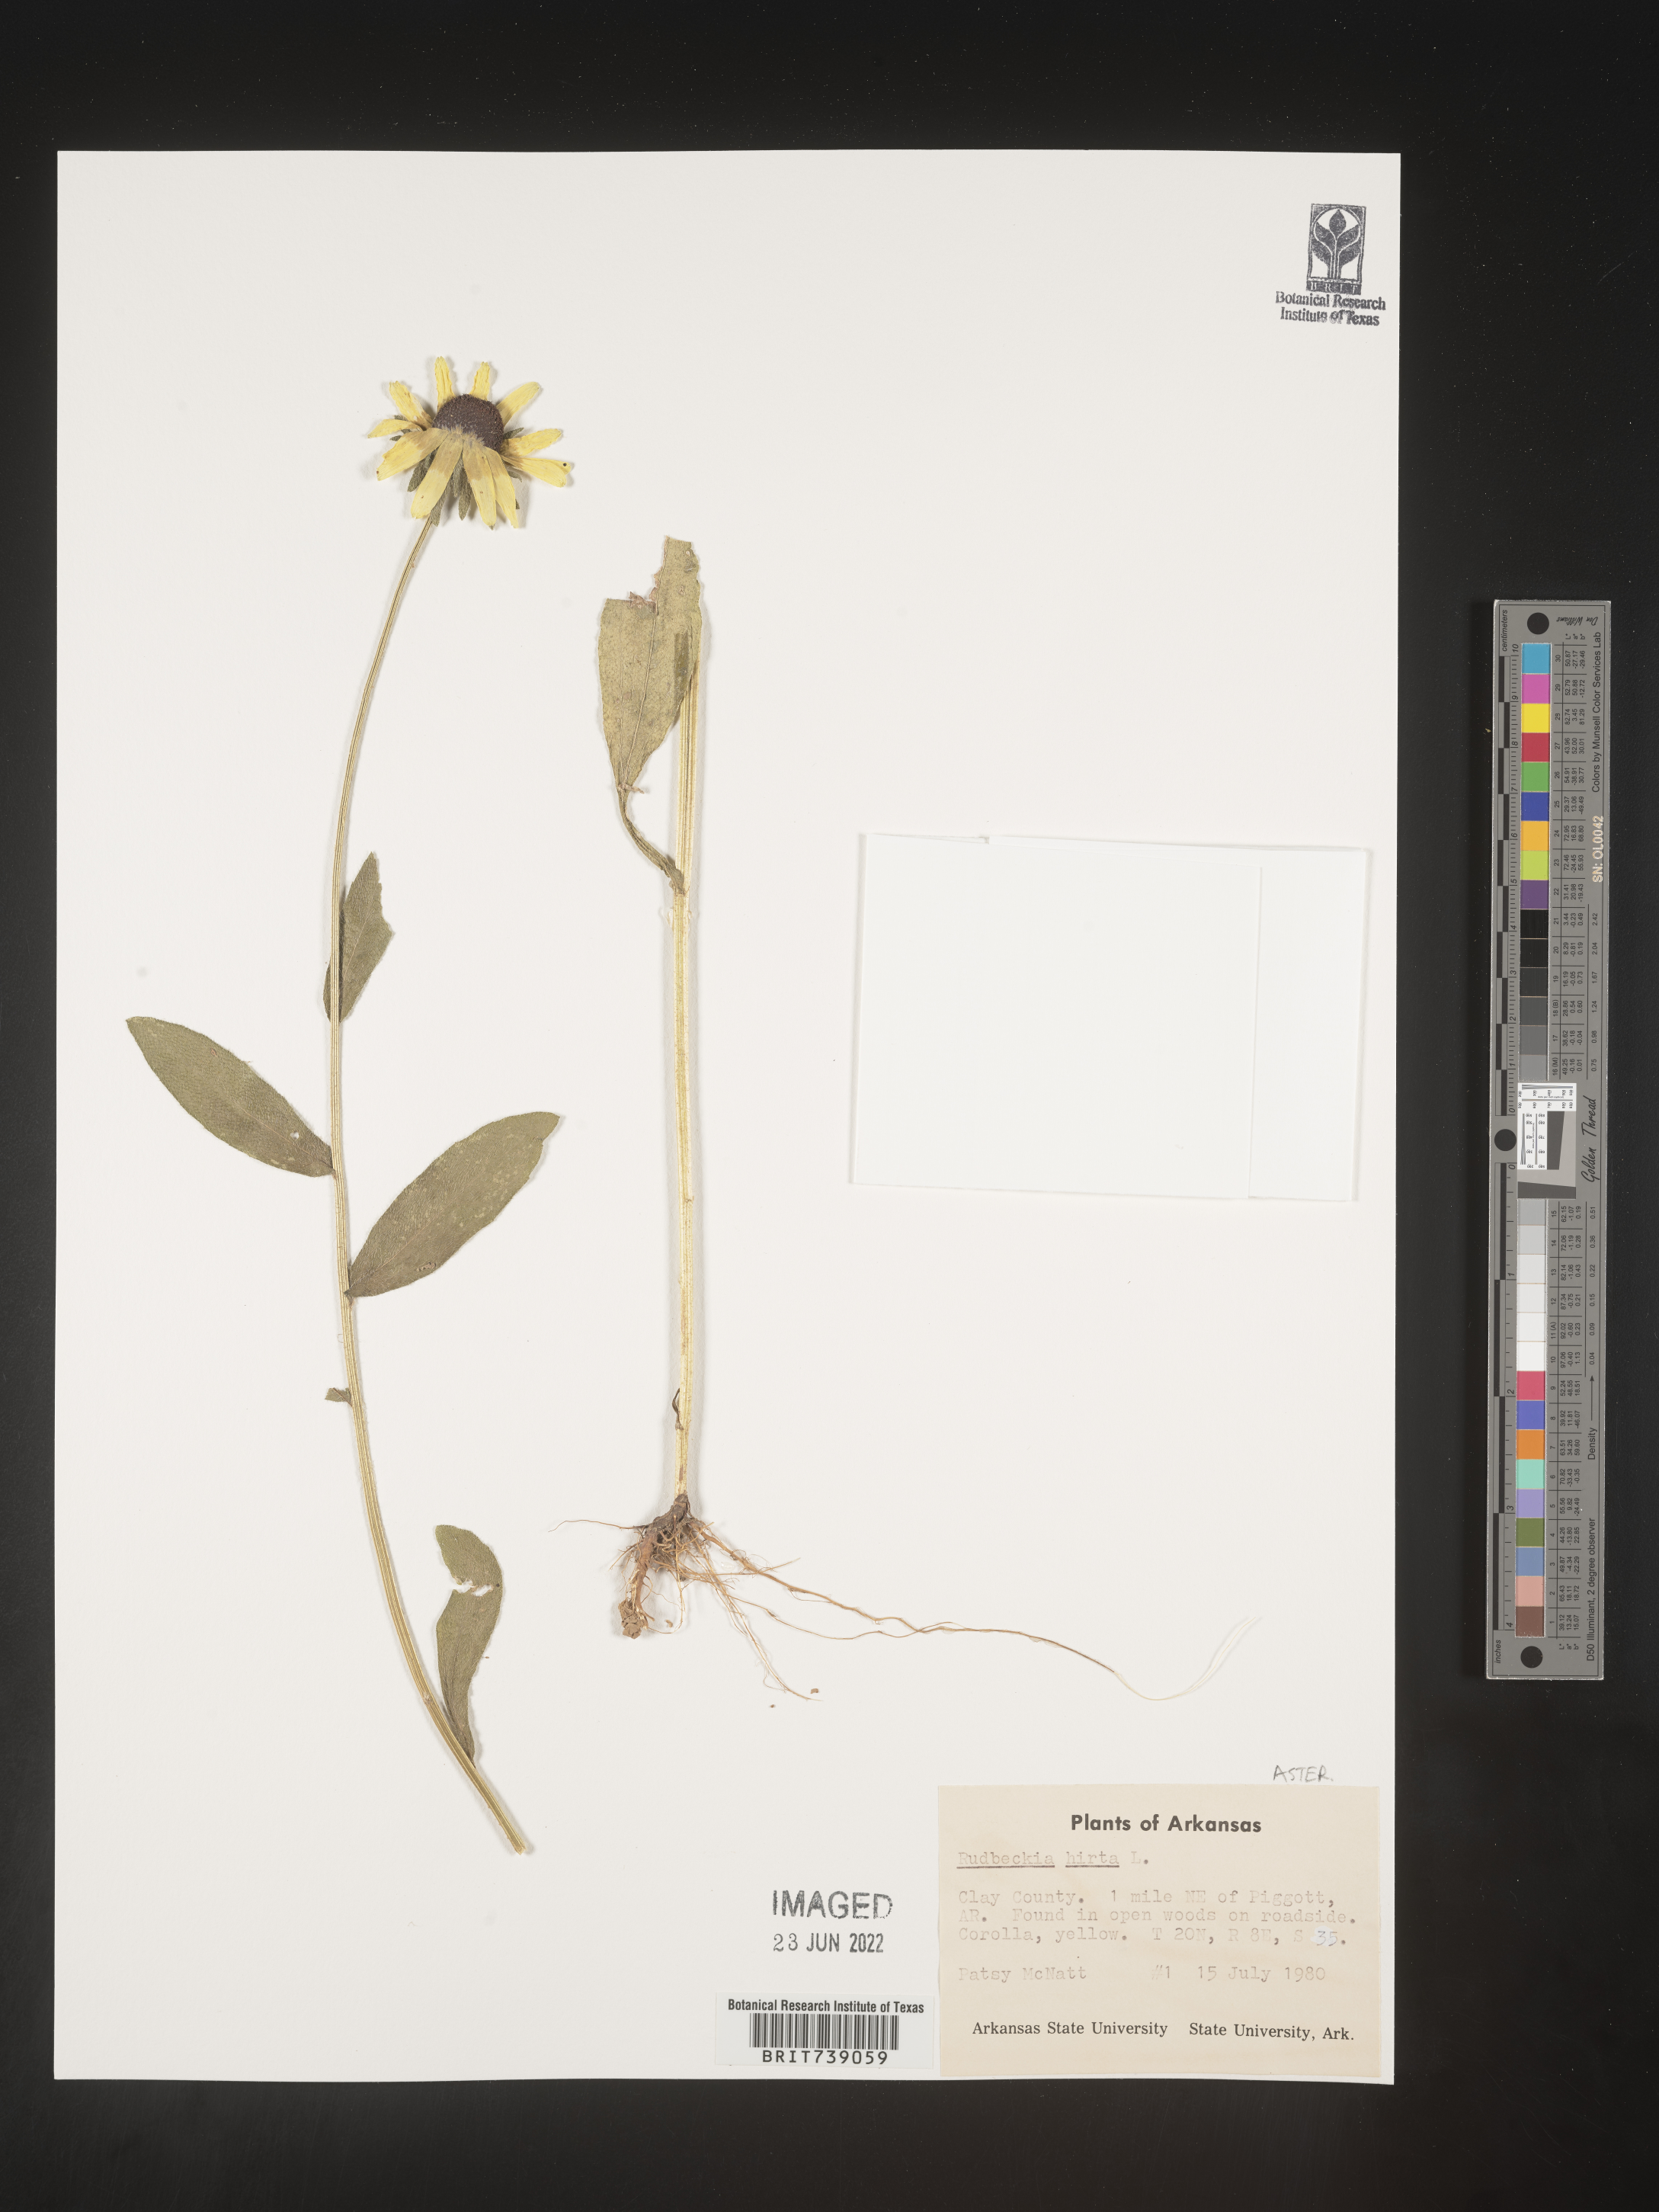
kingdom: Plantae
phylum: Tracheophyta
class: Magnoliopsida
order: Asterales
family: Asteraceae
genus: Rudbeckia
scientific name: Rudbeckia hirta
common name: Black-eyed-susan
